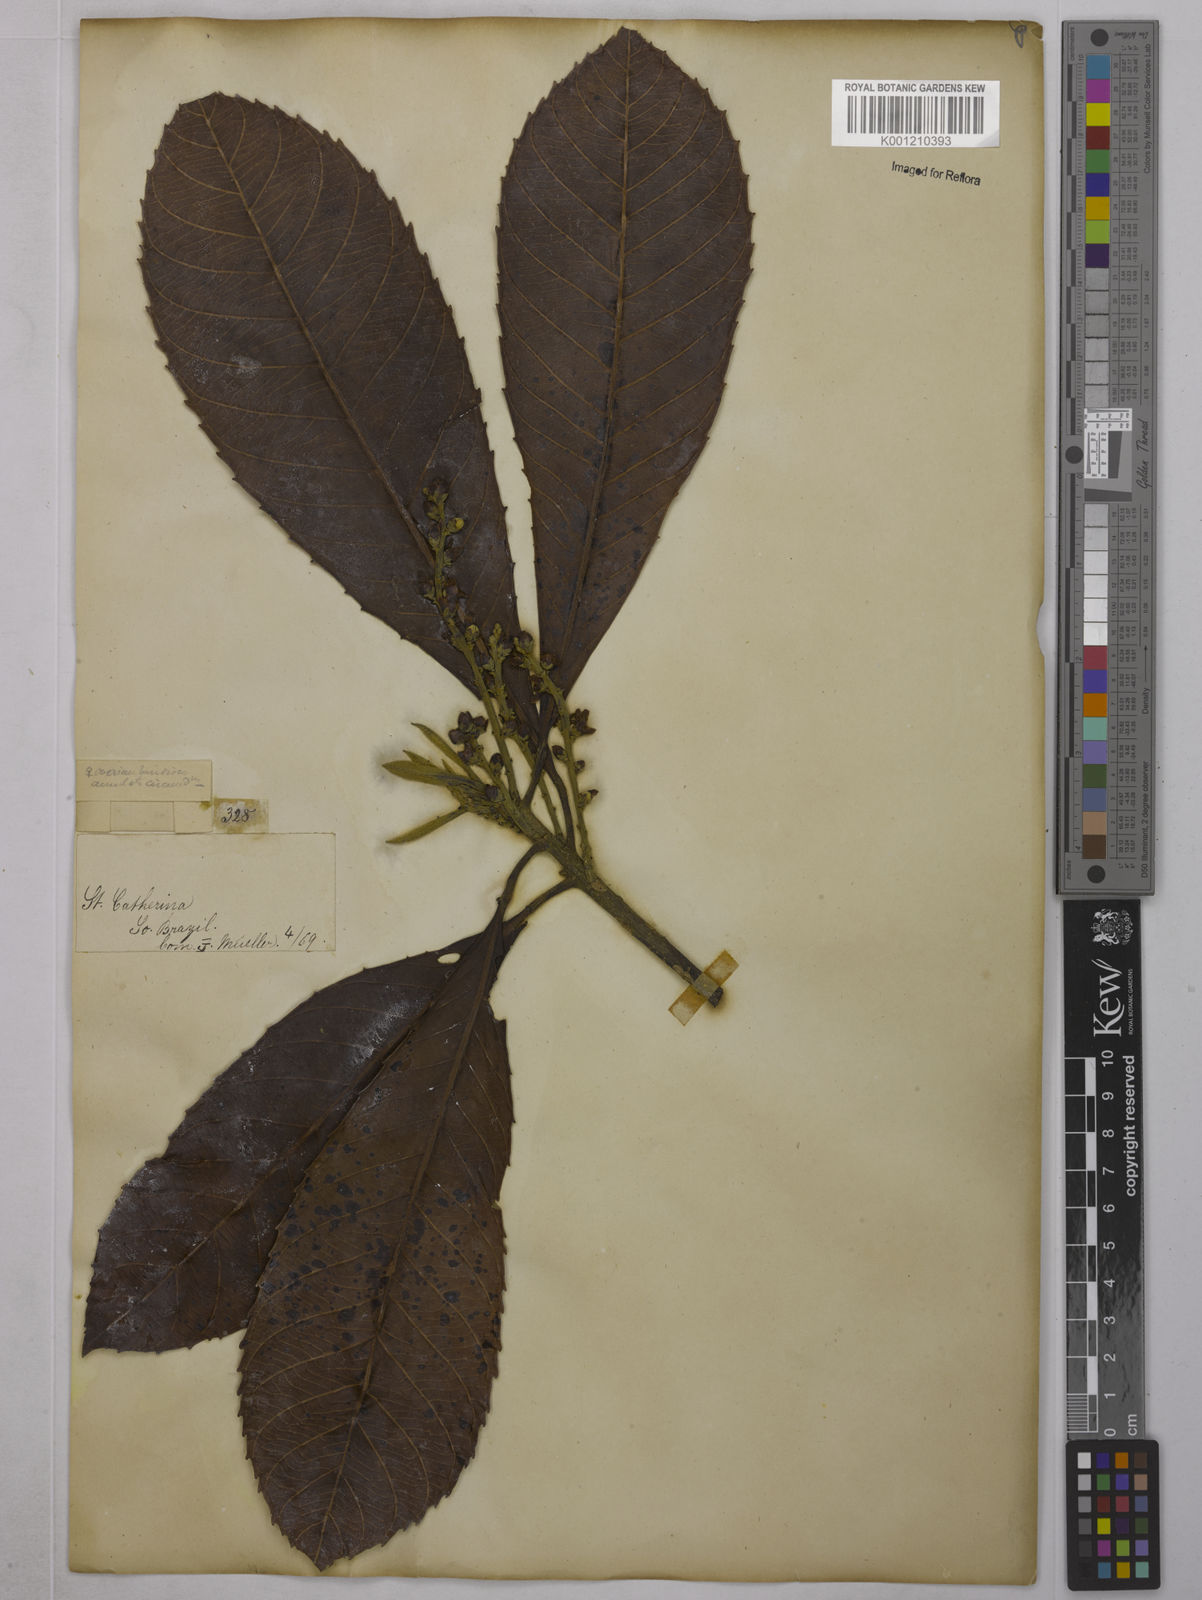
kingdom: Plantae
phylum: Tracheophyta
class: Magnoliopsida
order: Malpighiales
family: Euphorbiaceae
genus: Pausandra
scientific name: Pausandra morisiana
